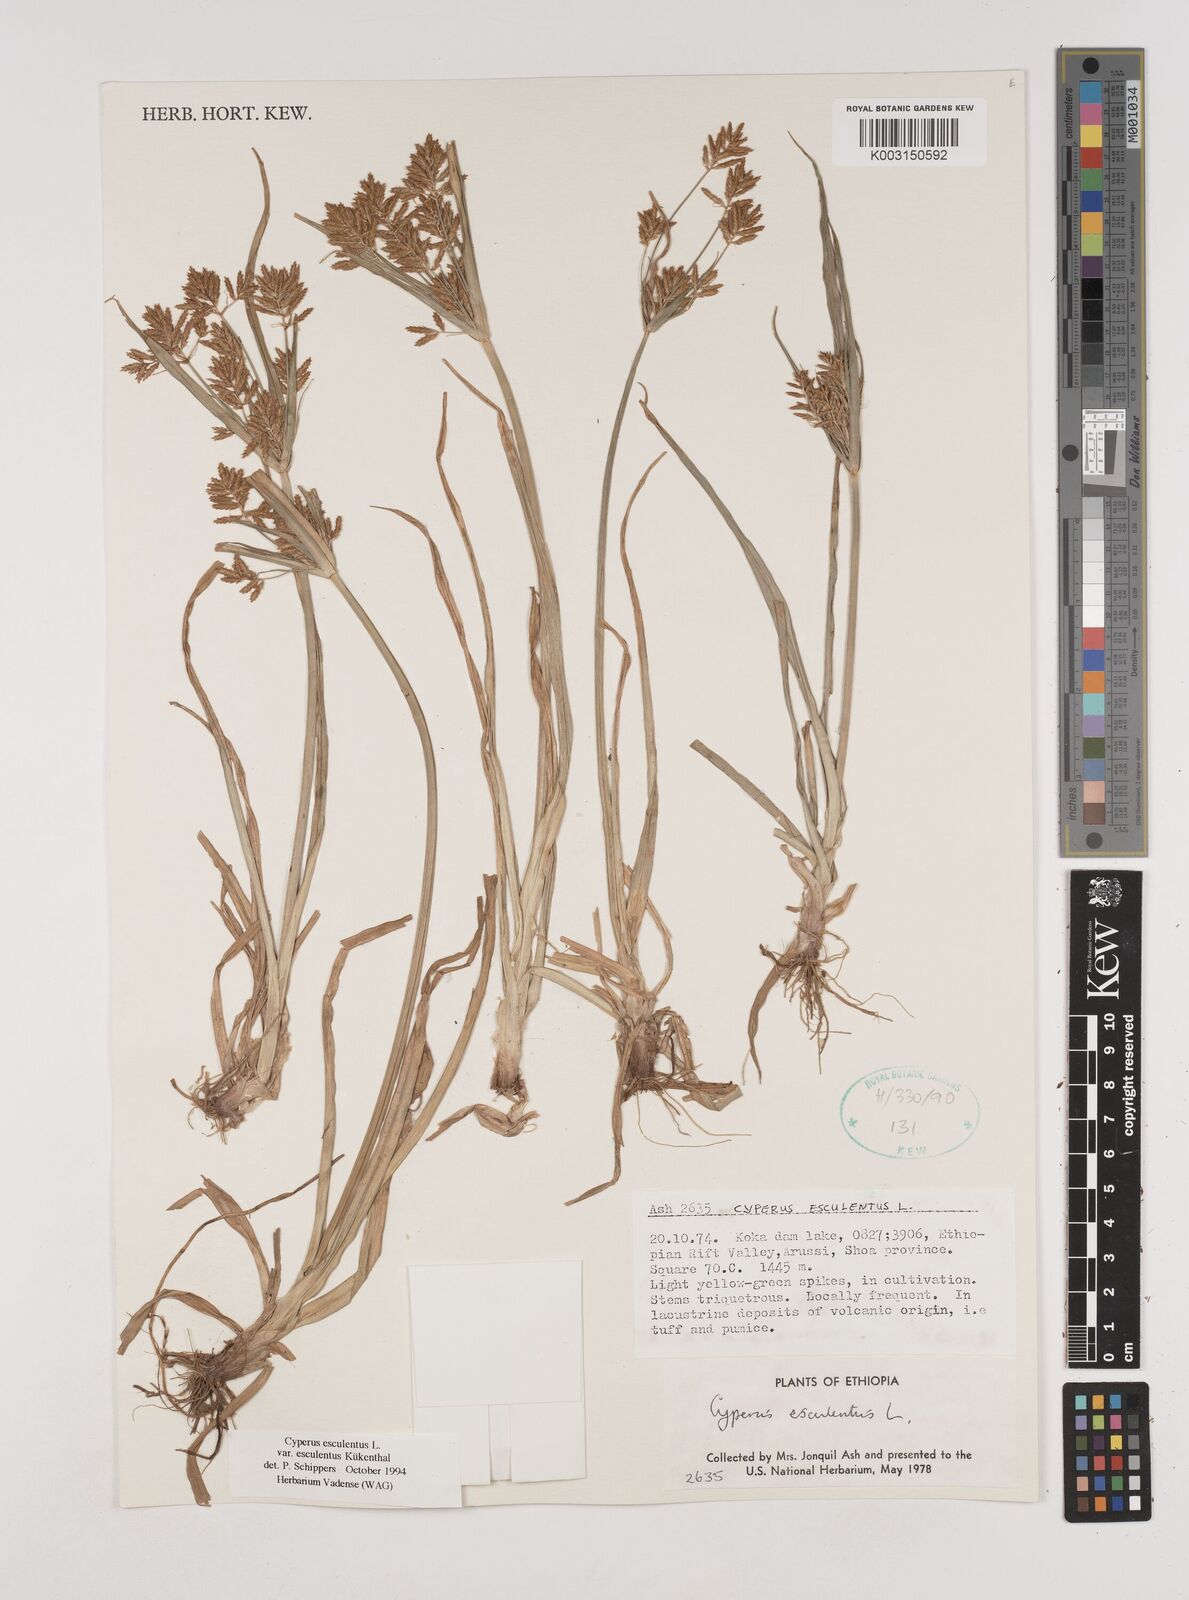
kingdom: Plantae
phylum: Tracheophyta
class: Liliopsida
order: Poales
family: Cyperaceae
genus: Cyperus
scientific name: Cyperus esculentus
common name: Yellow nutsedge
